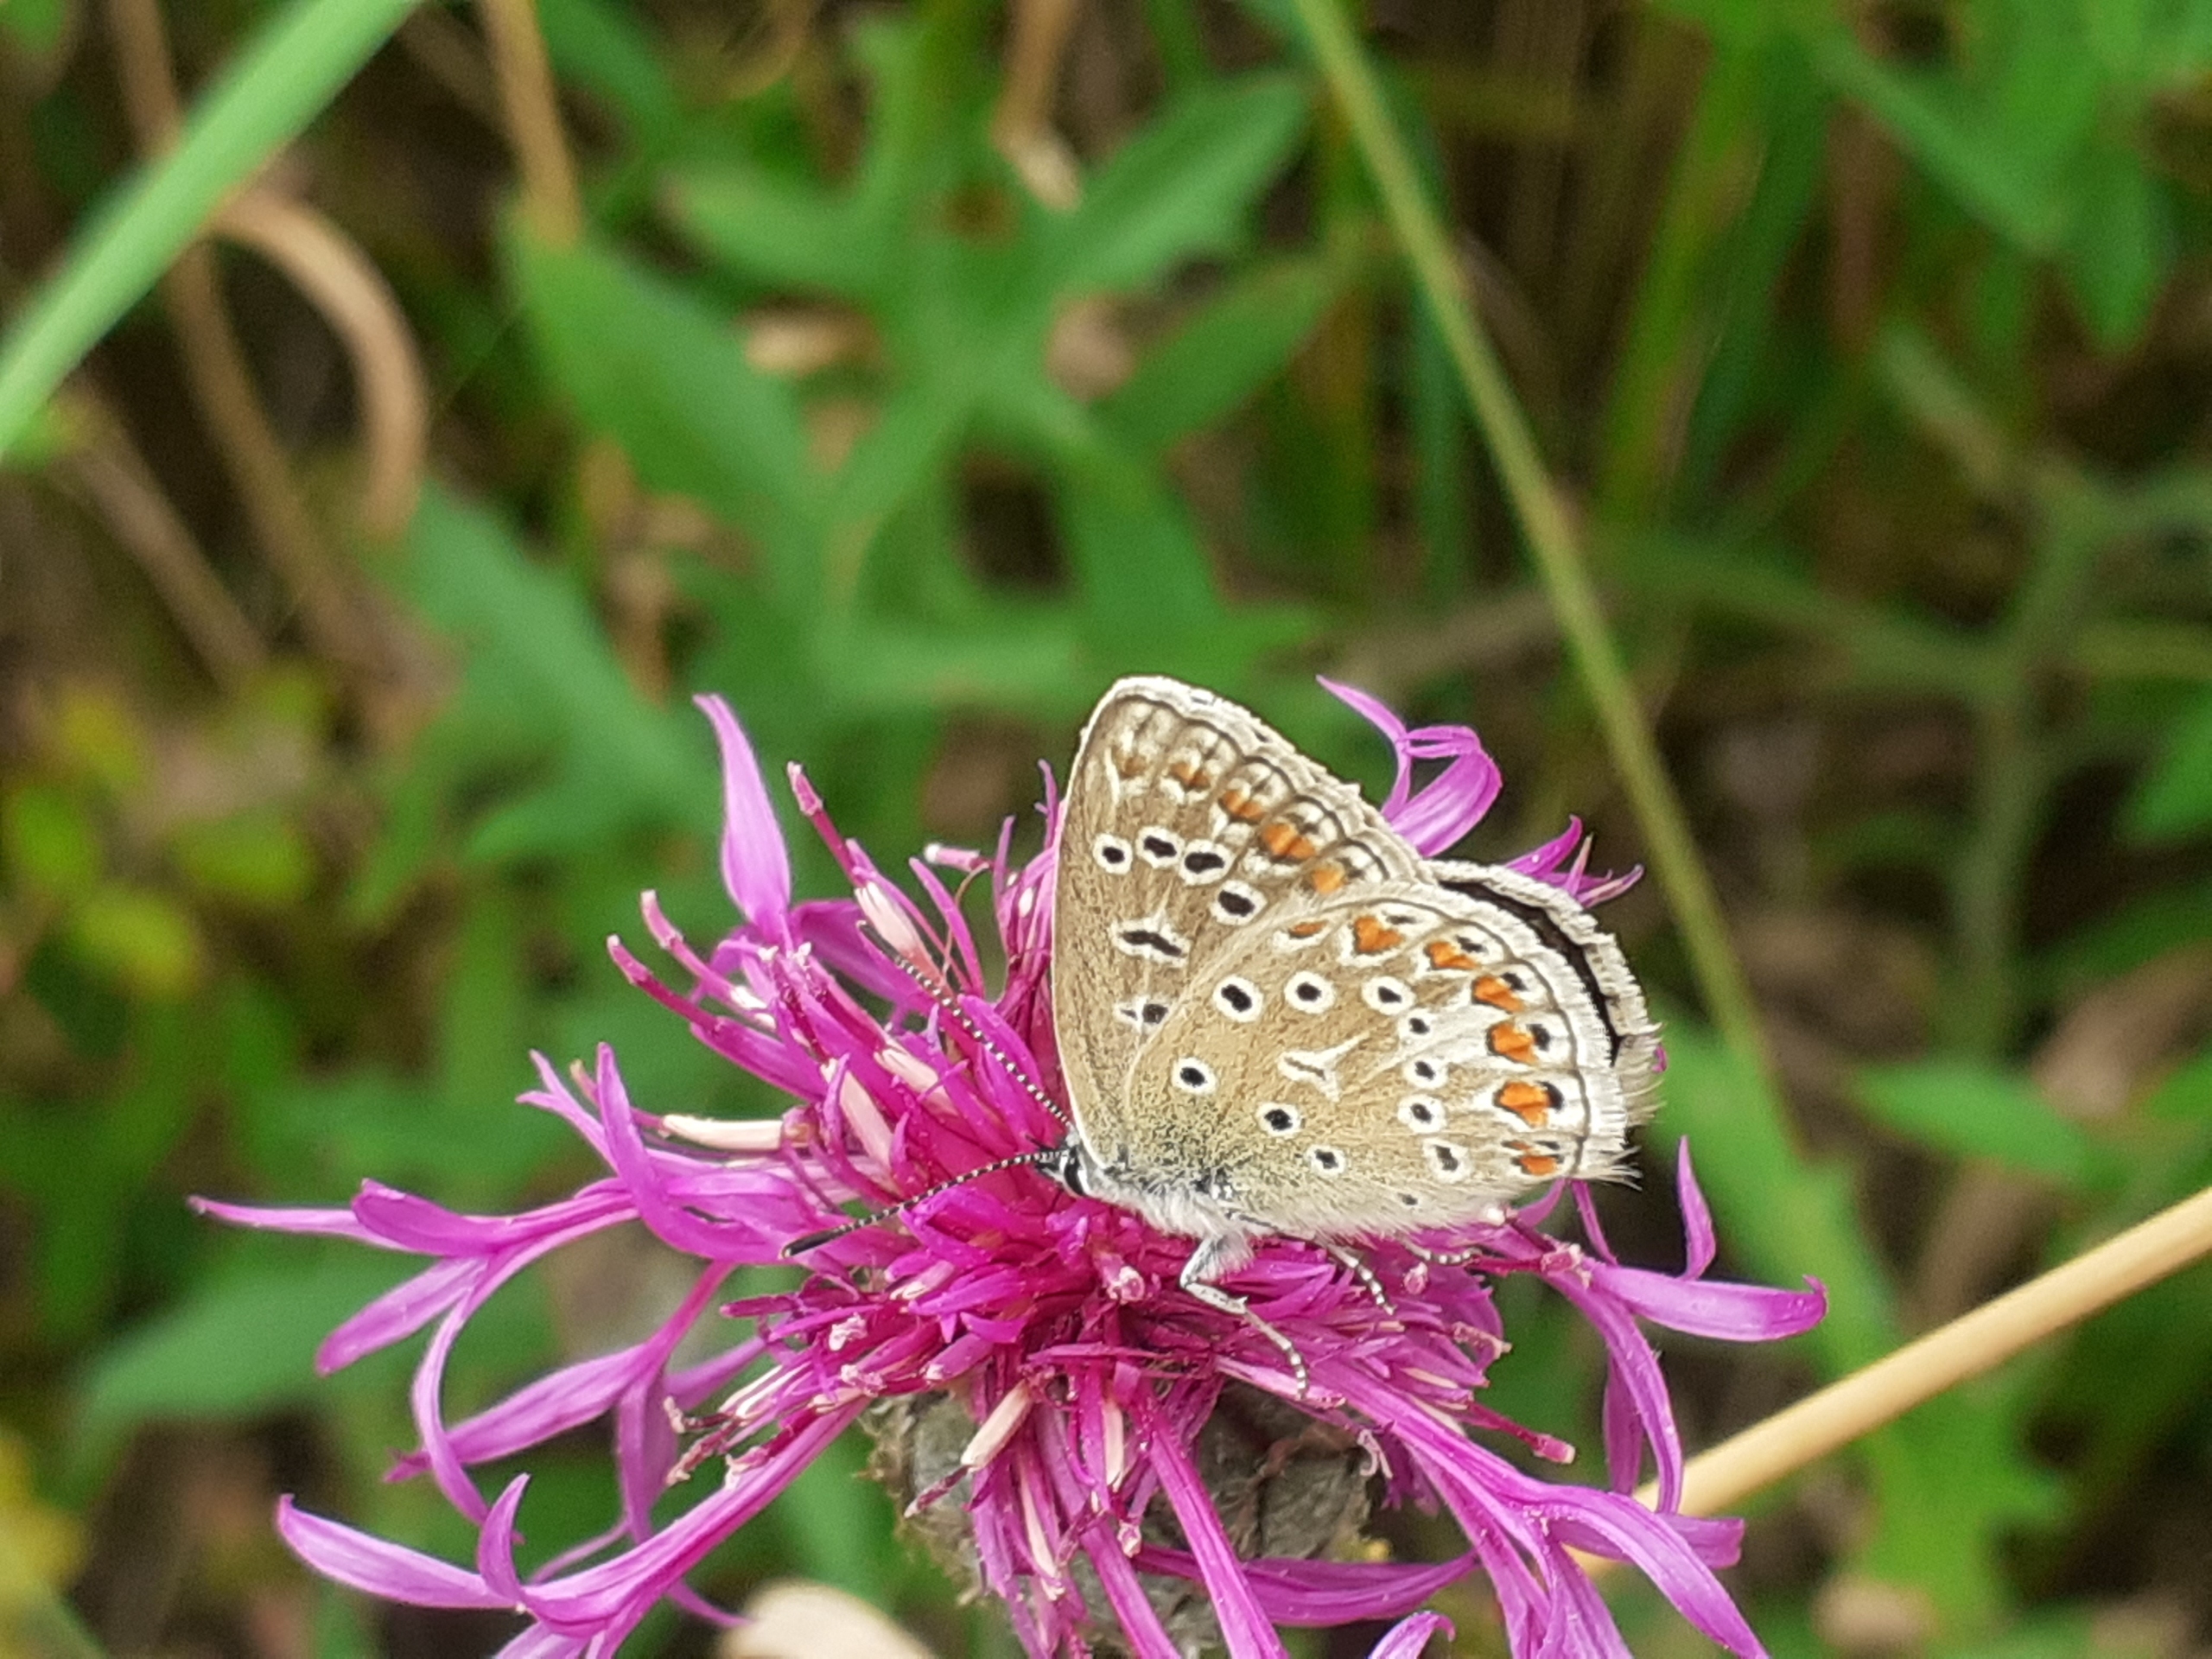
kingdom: Animalia
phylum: Arthropoda
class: Insecta
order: Lepidoptera
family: Lycaenidae
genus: Polyommatus
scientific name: Polyommatus icarus
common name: Almindelig blåfugl
